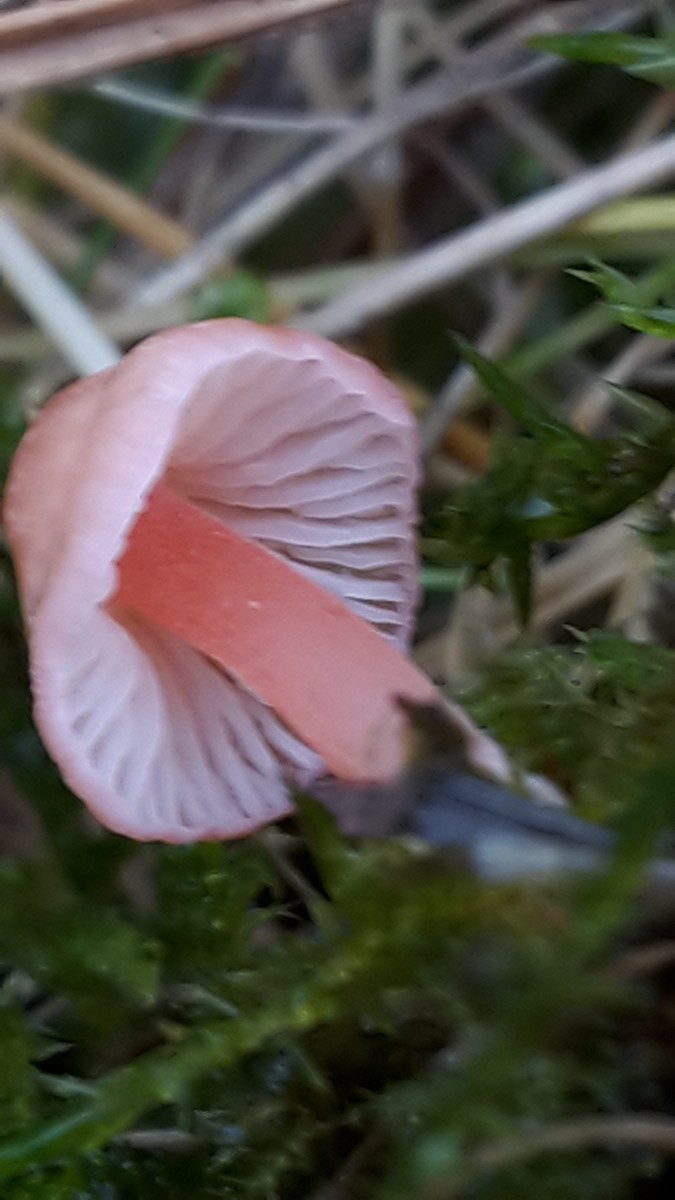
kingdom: Fungi
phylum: Basidiomycota
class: Agaricomycetes
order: Agaricales
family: Mycenaceae
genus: Mycena
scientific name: Mycena coccinea
